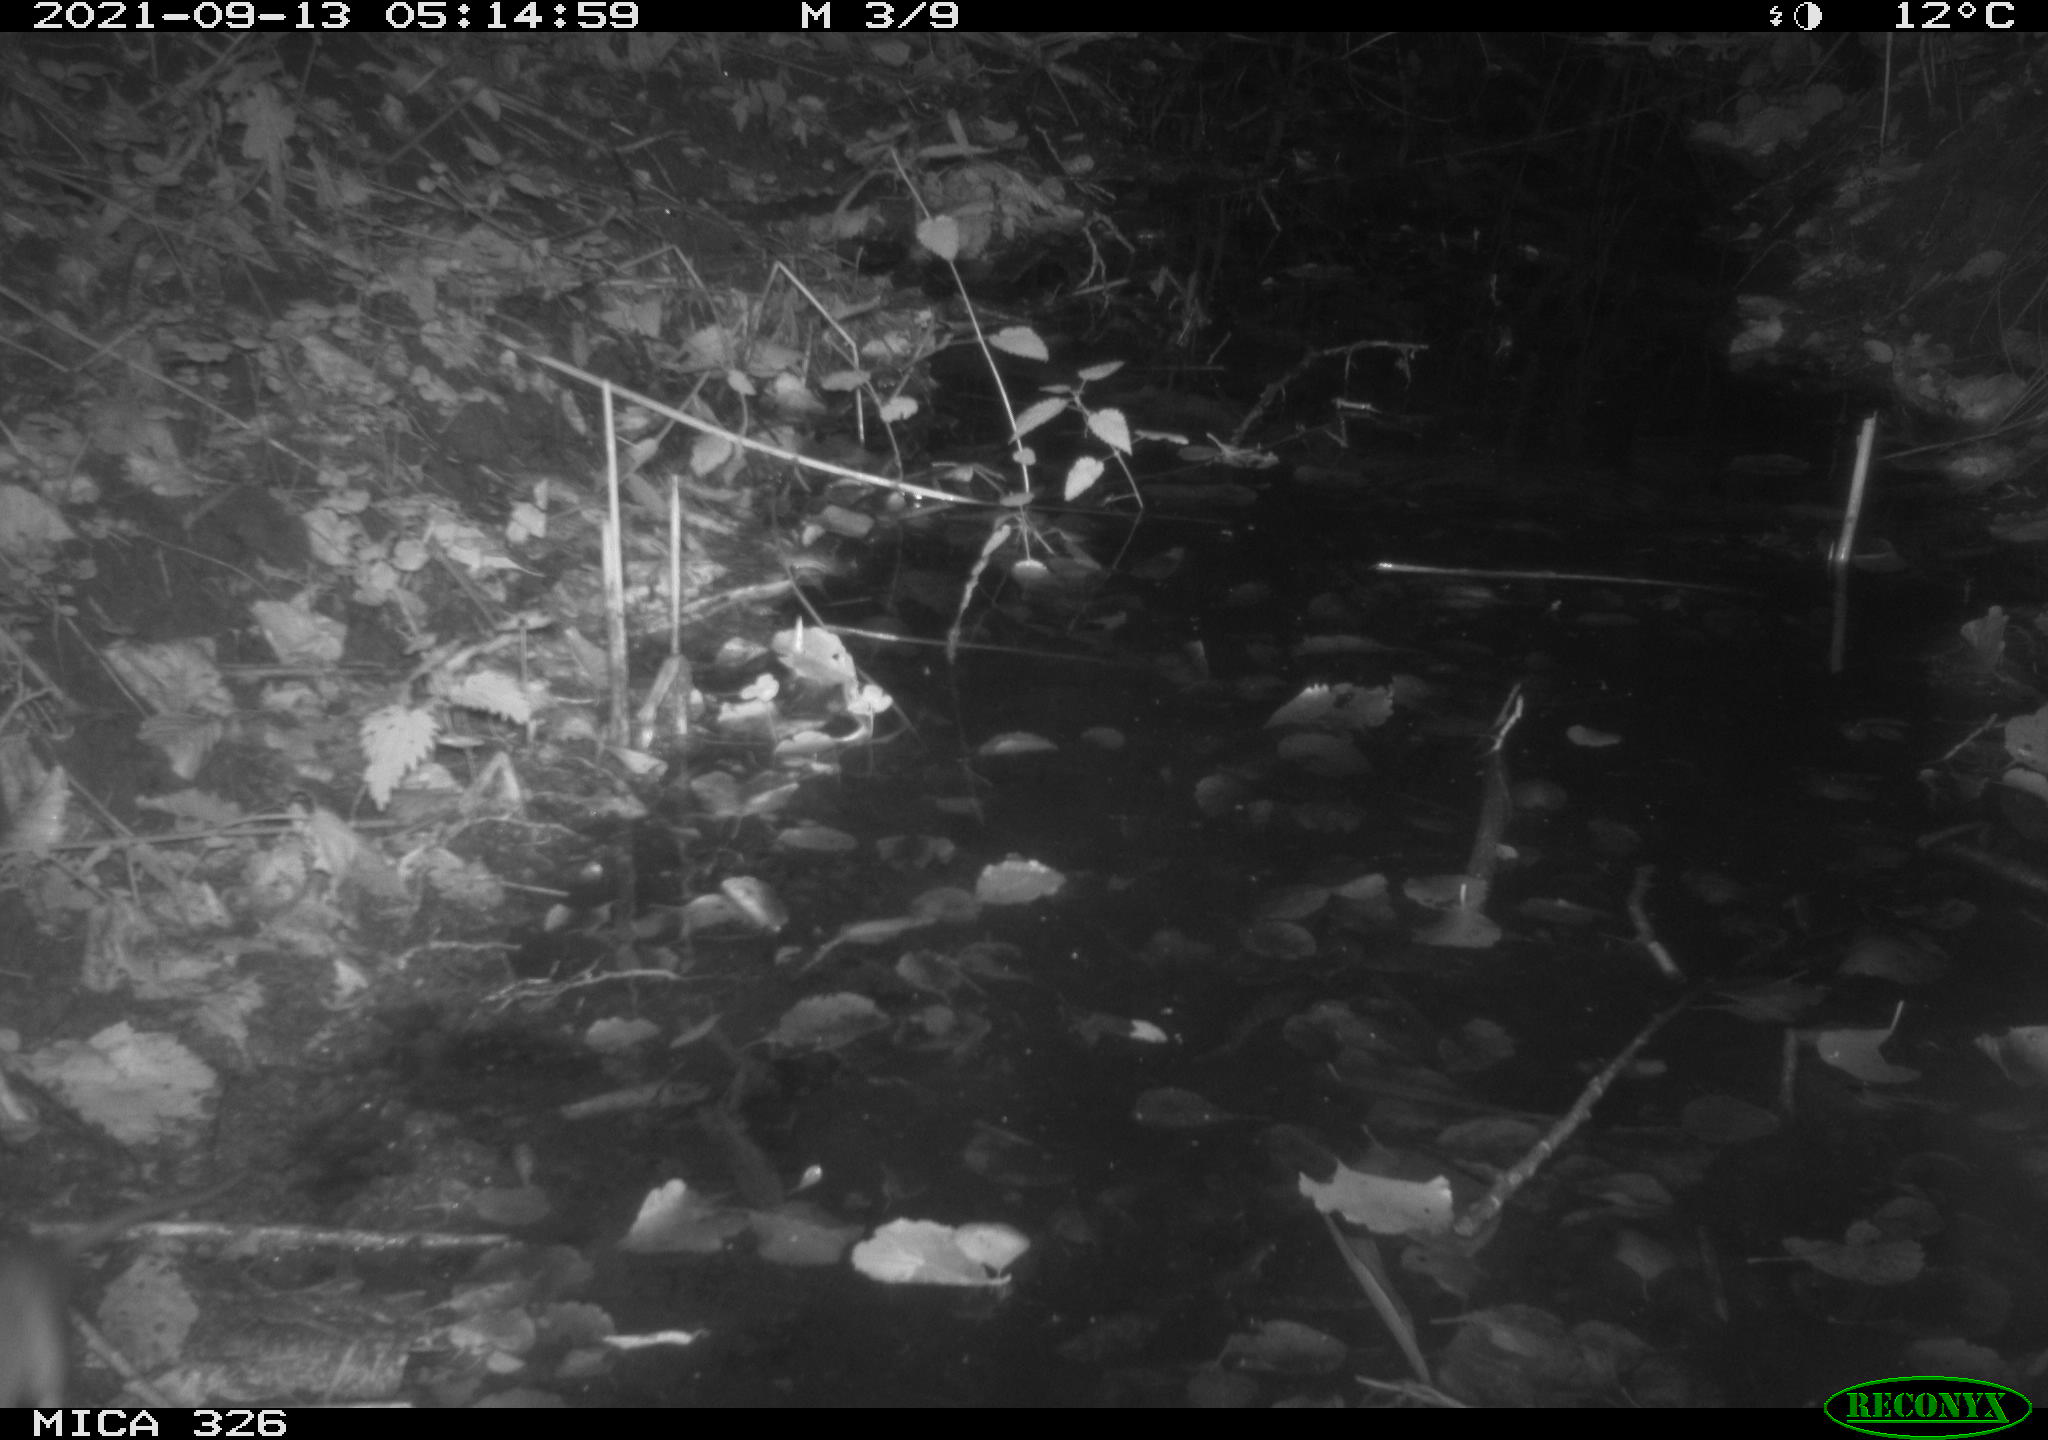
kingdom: Animalia
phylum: Chordata
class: Mammalia
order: Rodentia
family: Muridae
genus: Rattus
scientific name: Rattus norvegicus
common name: Brown rat
